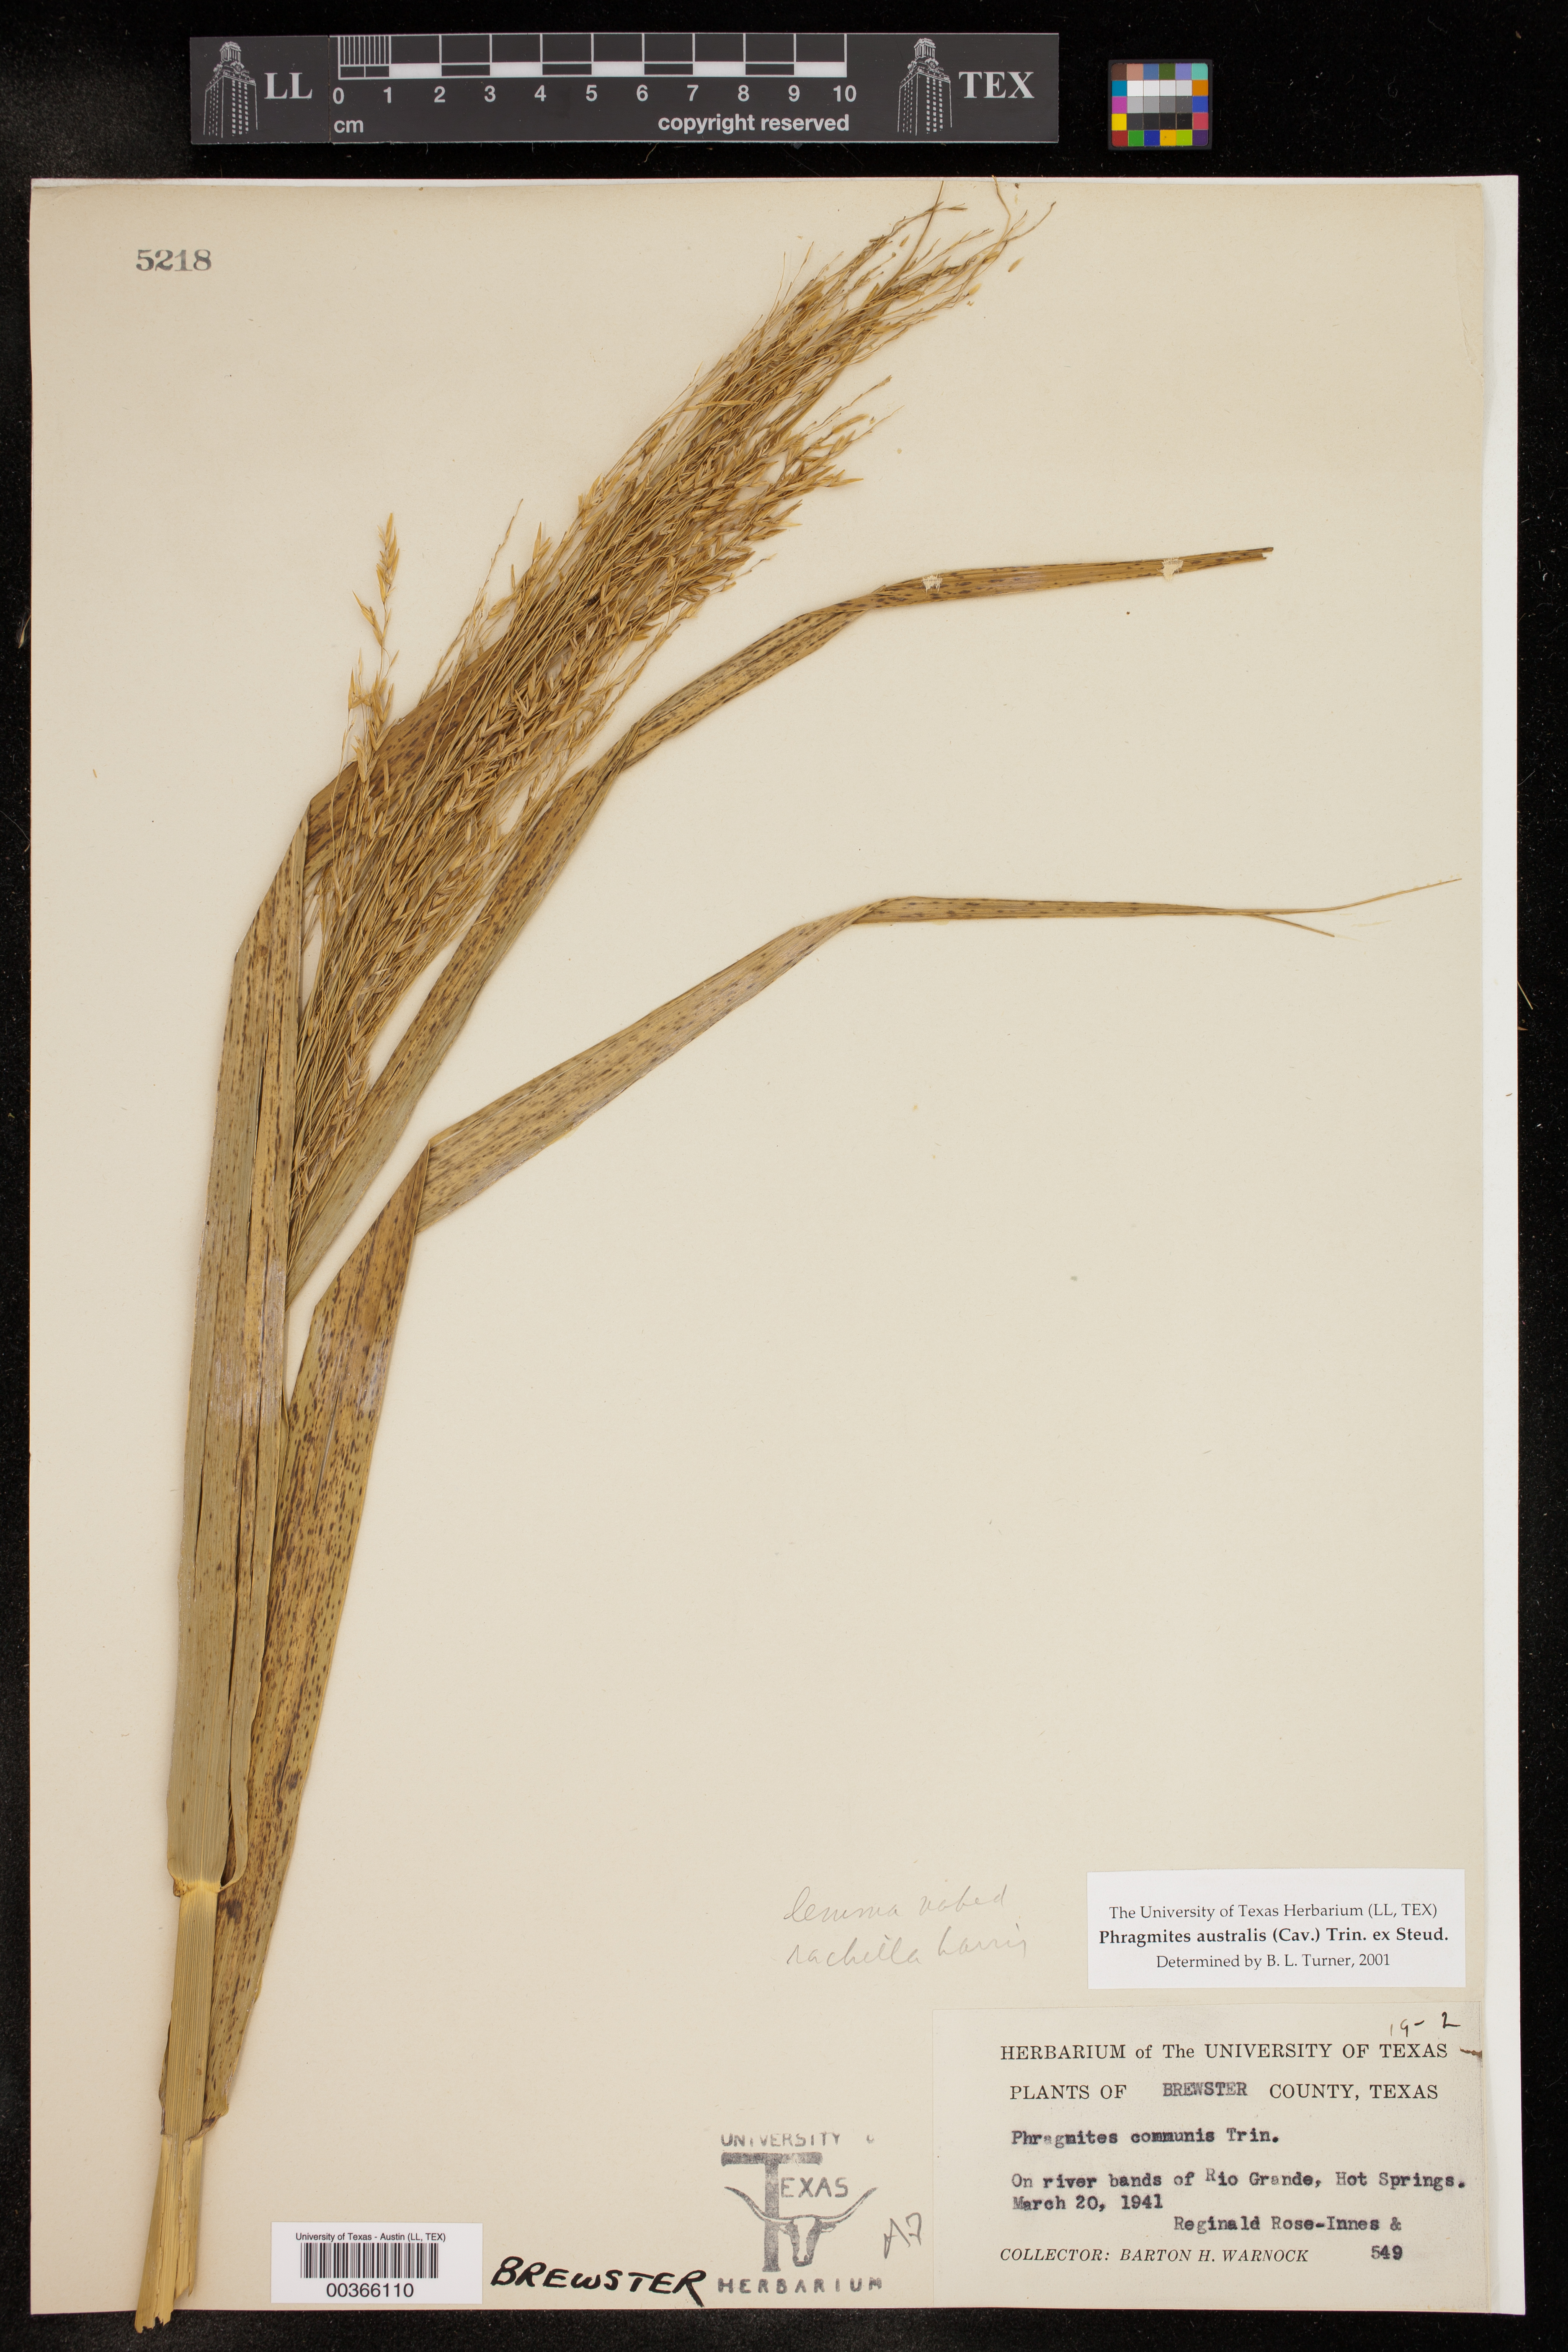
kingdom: Plantae
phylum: Tracheophyta
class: Liliopsida
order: Poales
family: Poaceae
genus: Phragmites
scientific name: Phragmites australis
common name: Common reed
